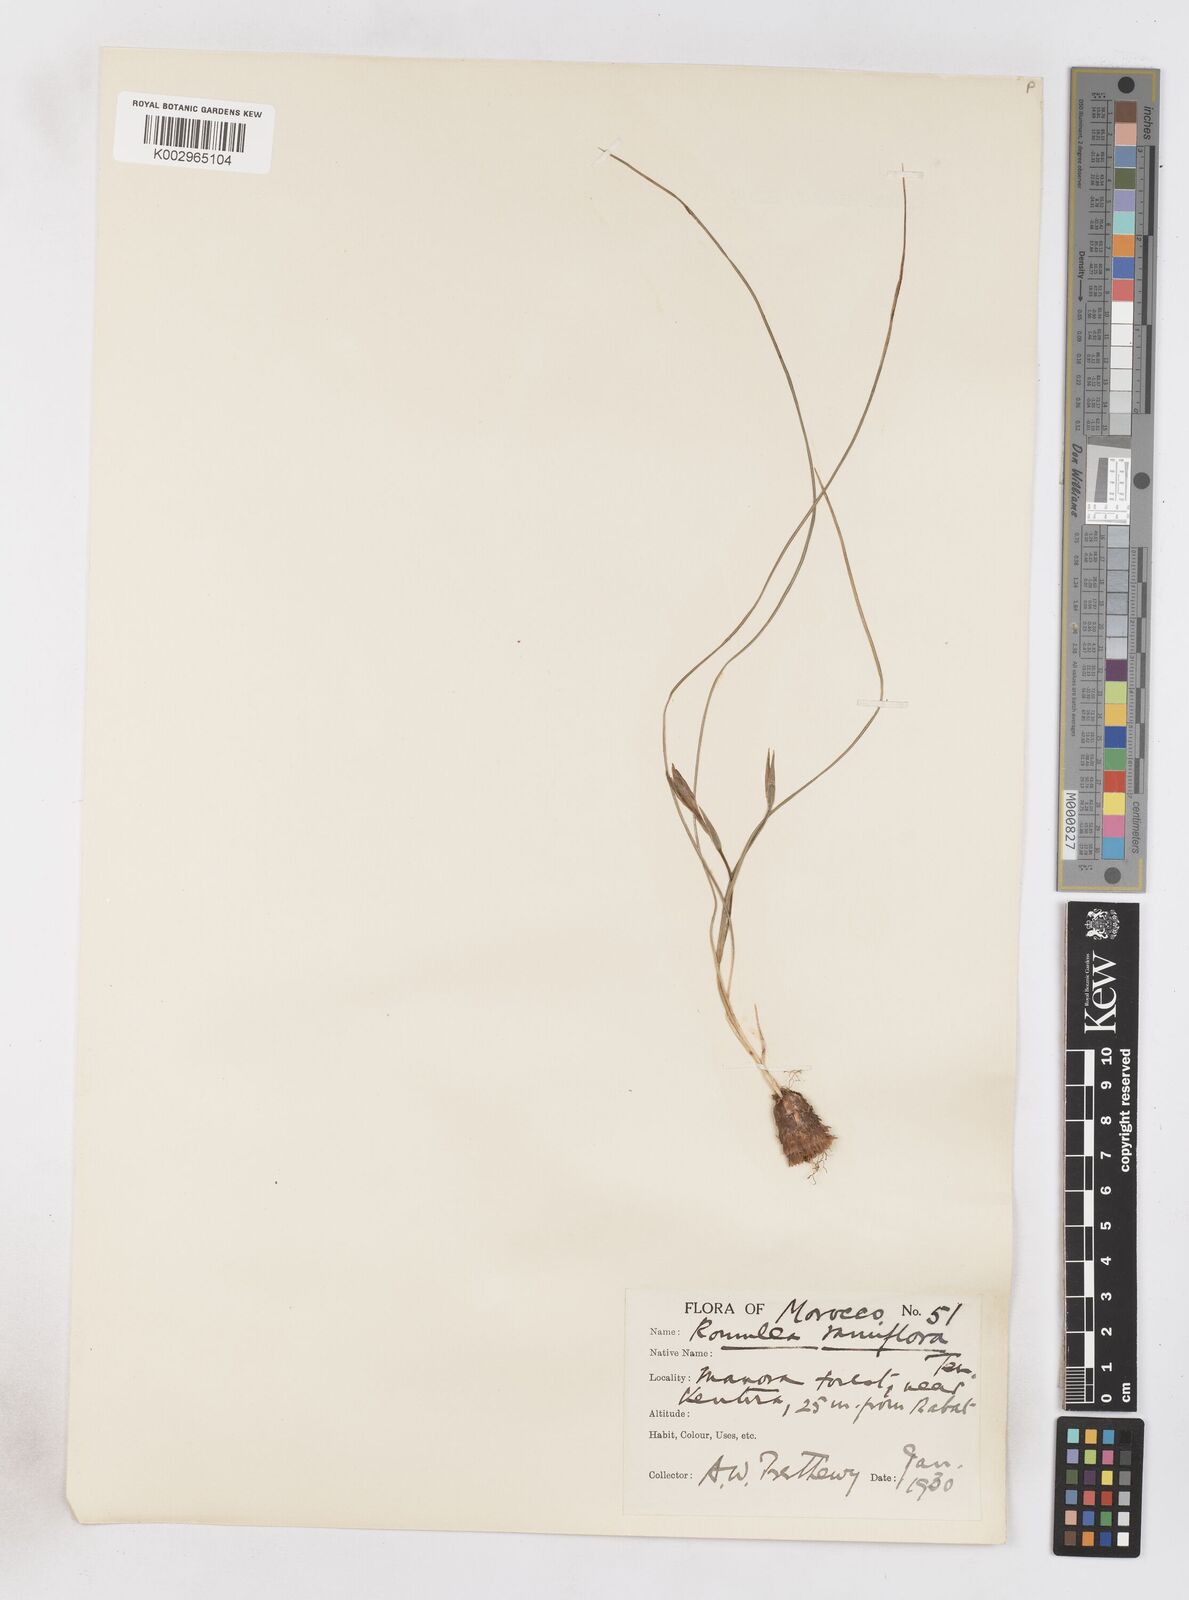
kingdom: Plantae
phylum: Tracheophyta
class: Liliopsida
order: Asparagales
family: Iridaceae
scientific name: Iridaceae
